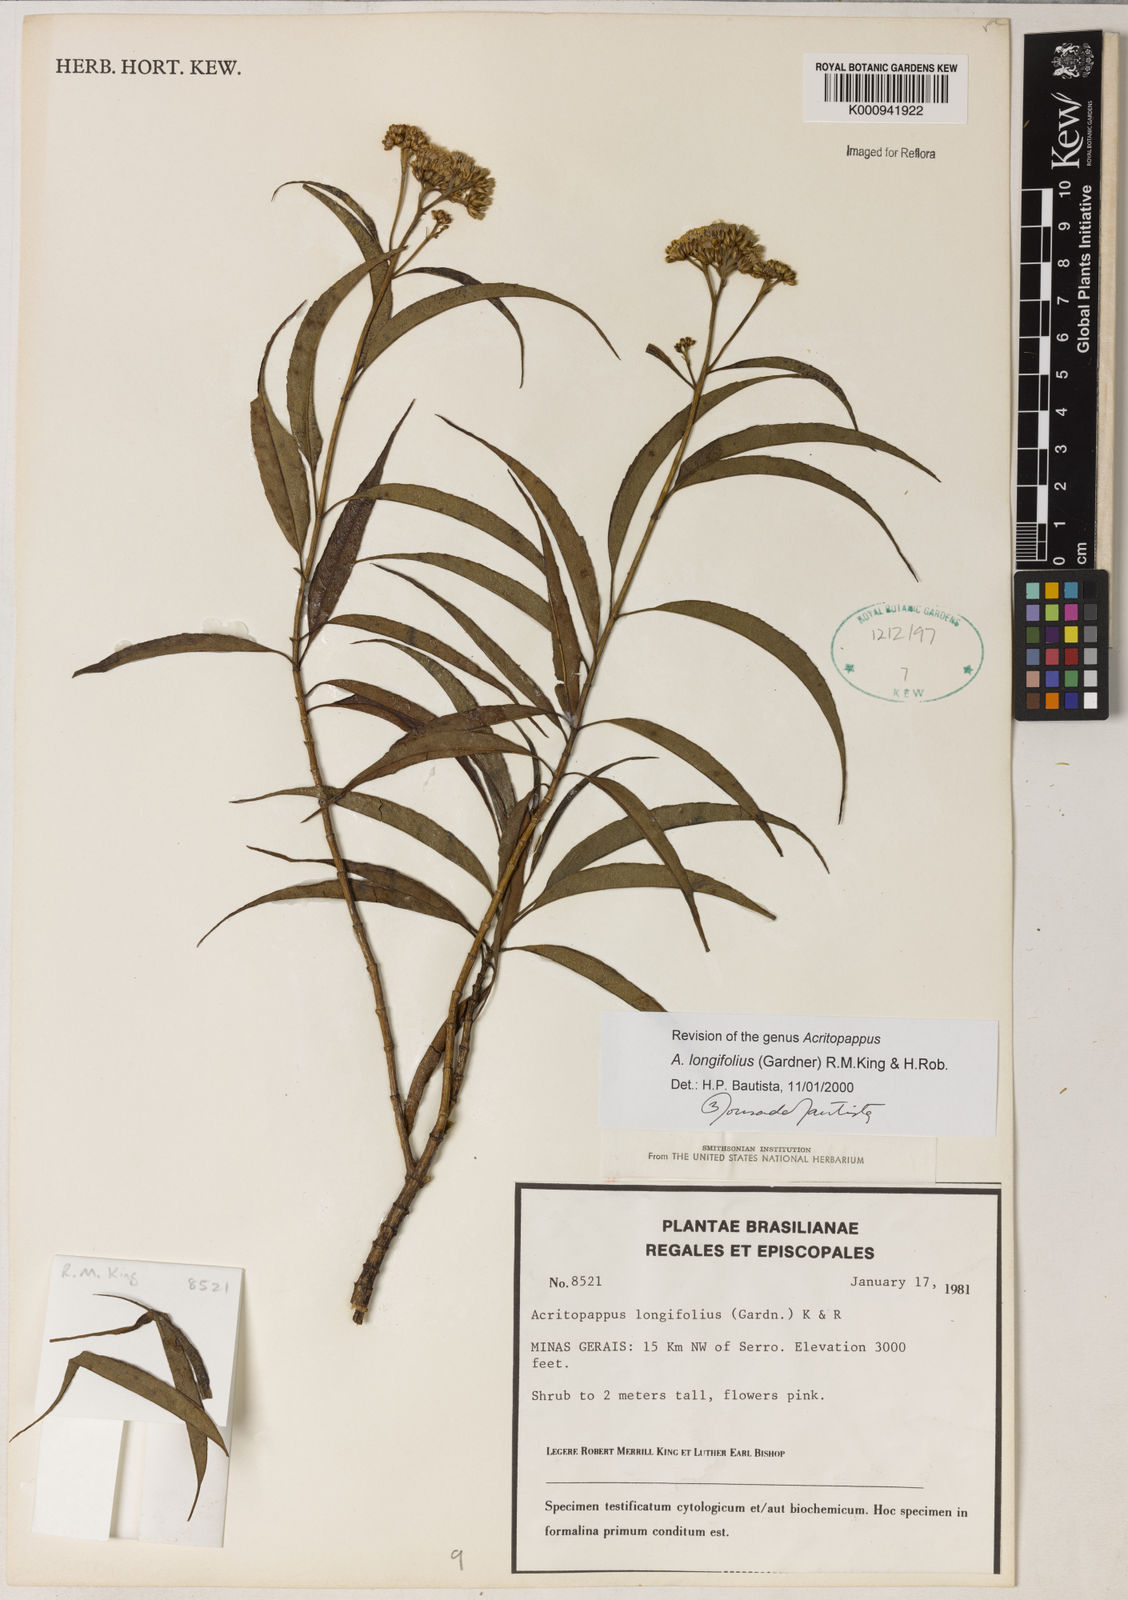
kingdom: Plantae
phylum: Tracheophyta
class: Magnoliopsida
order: Asterales
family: Asteraceae
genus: Acritopappus
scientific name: Acritopappus longifolius
